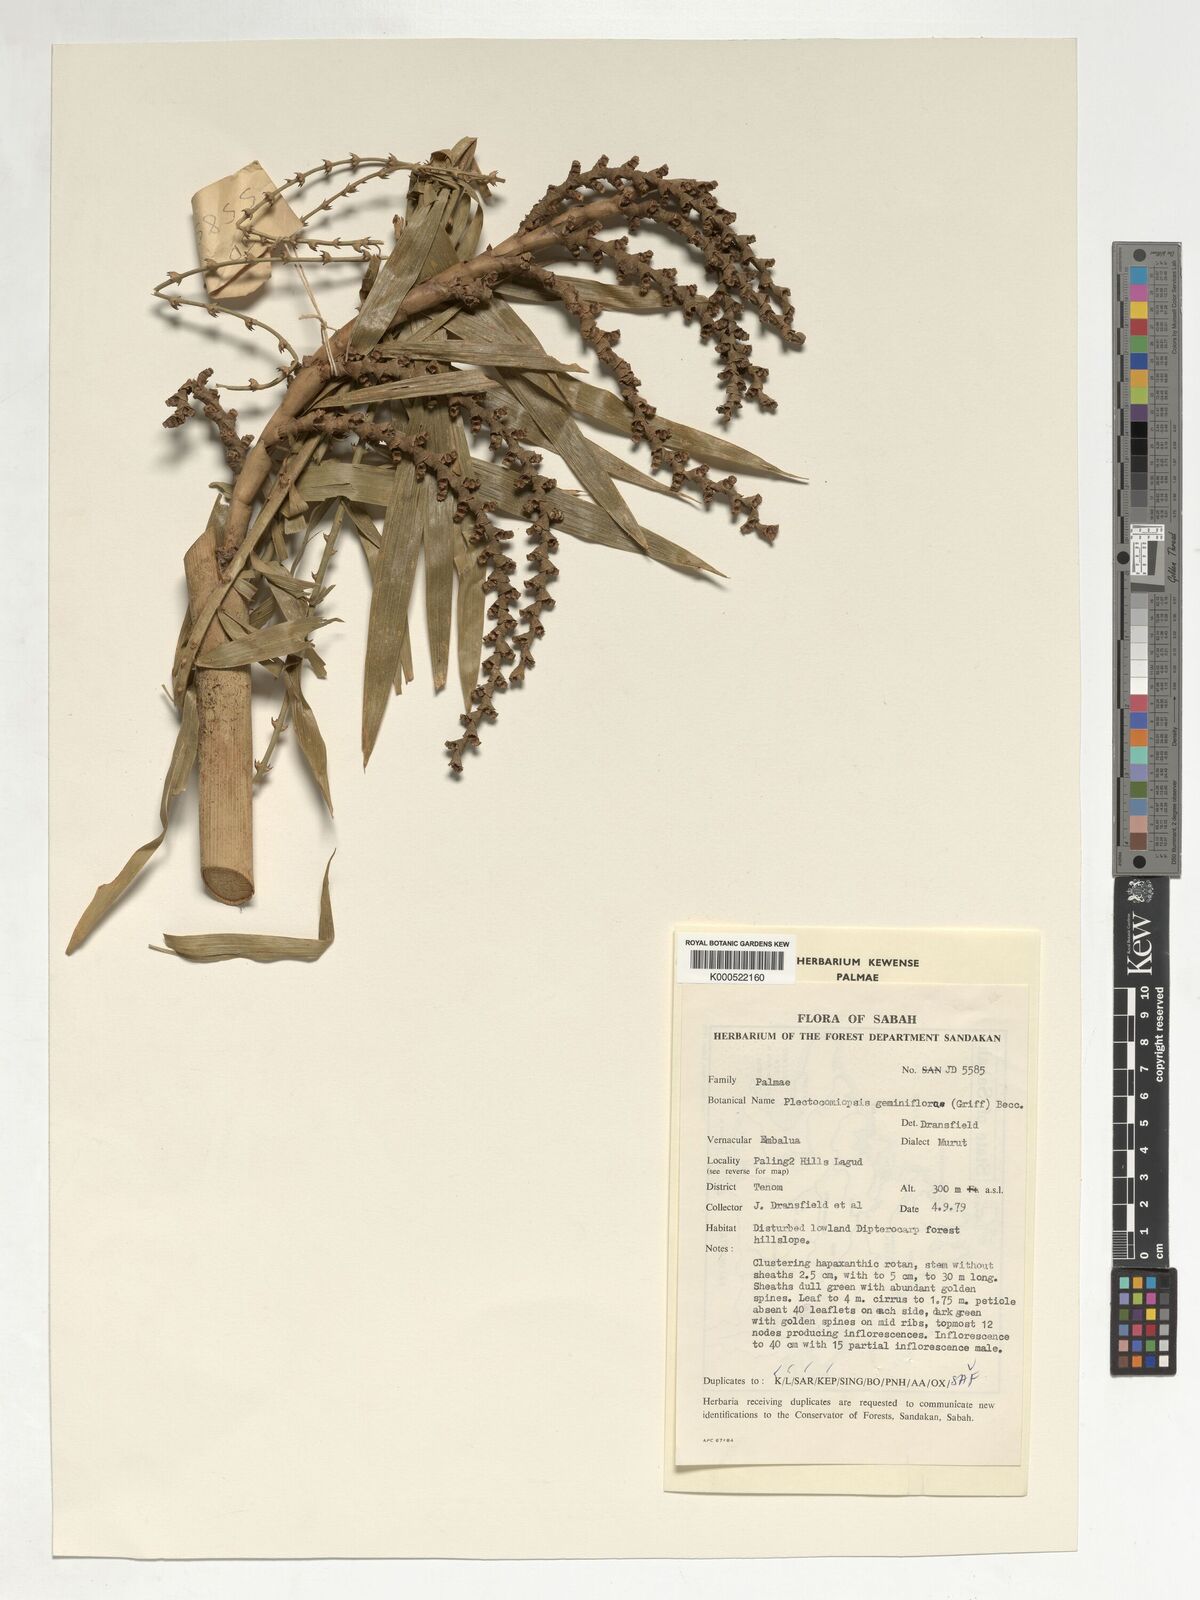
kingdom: Plantae
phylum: Tracheophyta
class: Liliopsida
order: Arecales
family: Arecaceae
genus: Plectocomiopsis
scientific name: Plectocomiopsis geminiflora
